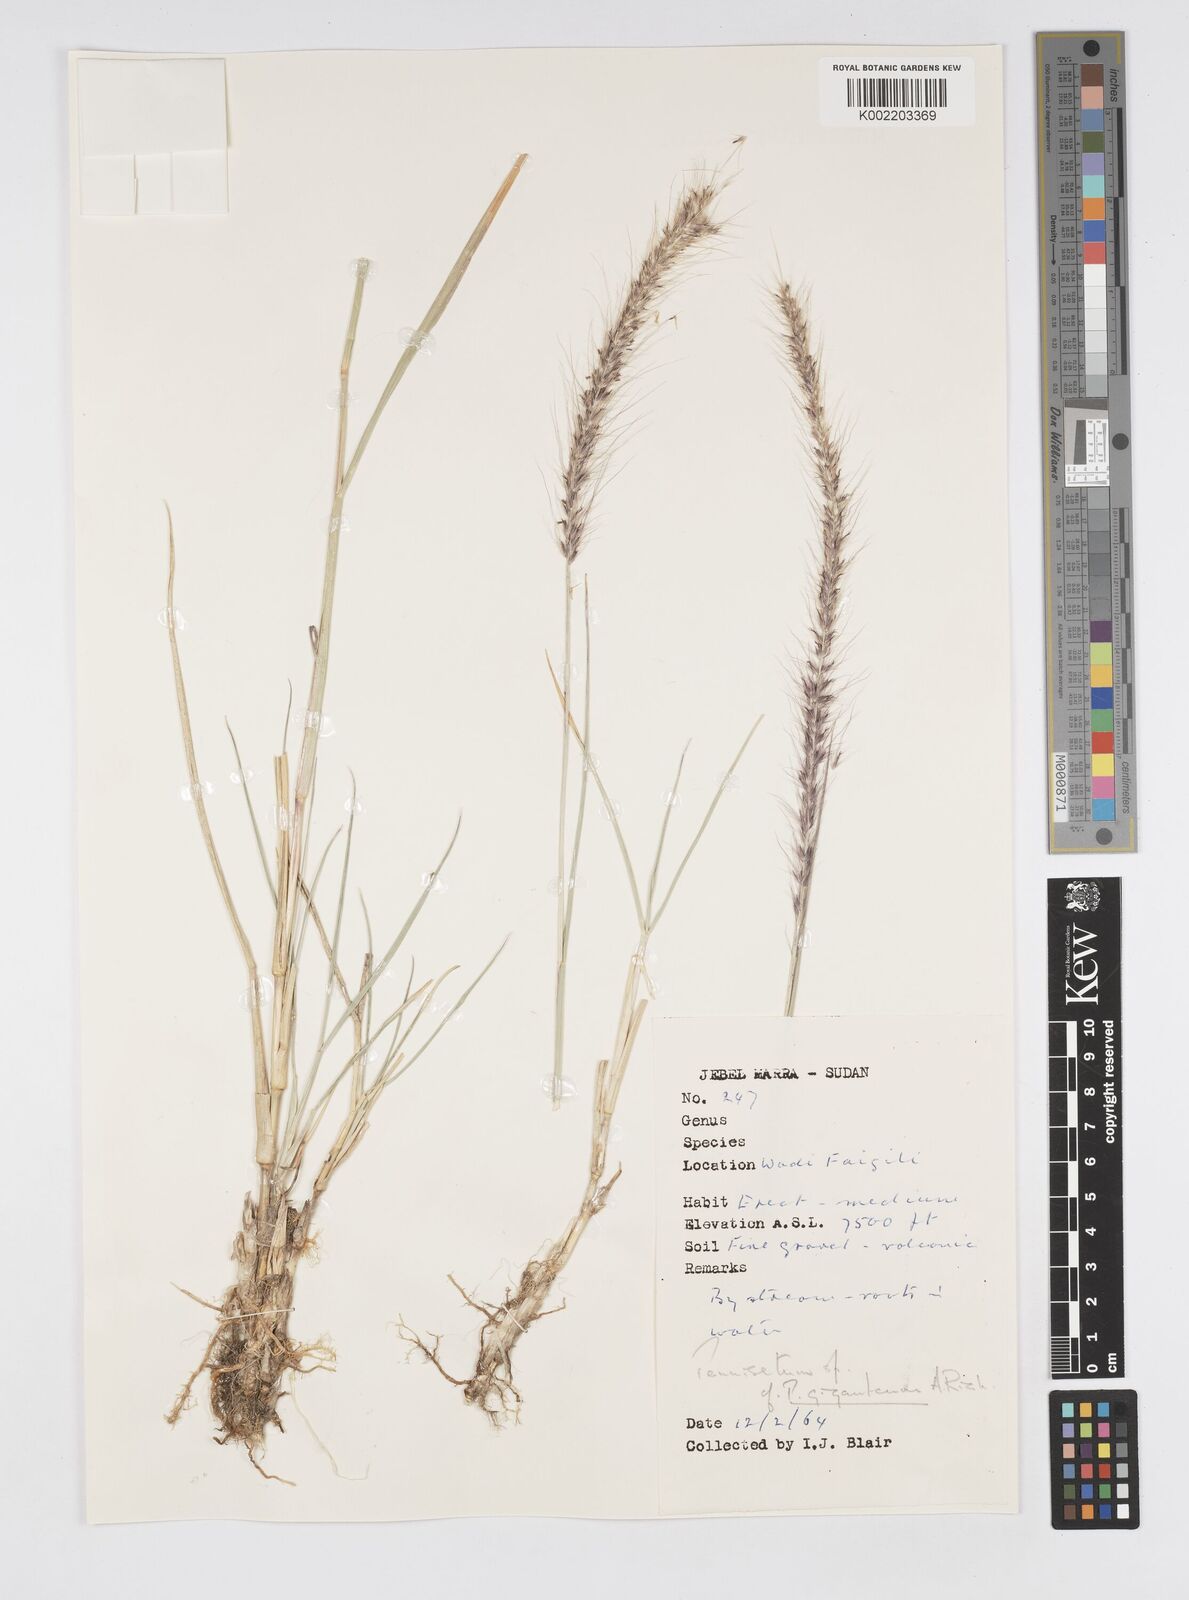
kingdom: Plantae
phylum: Tracheophyta
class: Liliopsida
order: Poales
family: Poaceae
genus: Cenchrus
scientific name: Cenchrus caudatus
